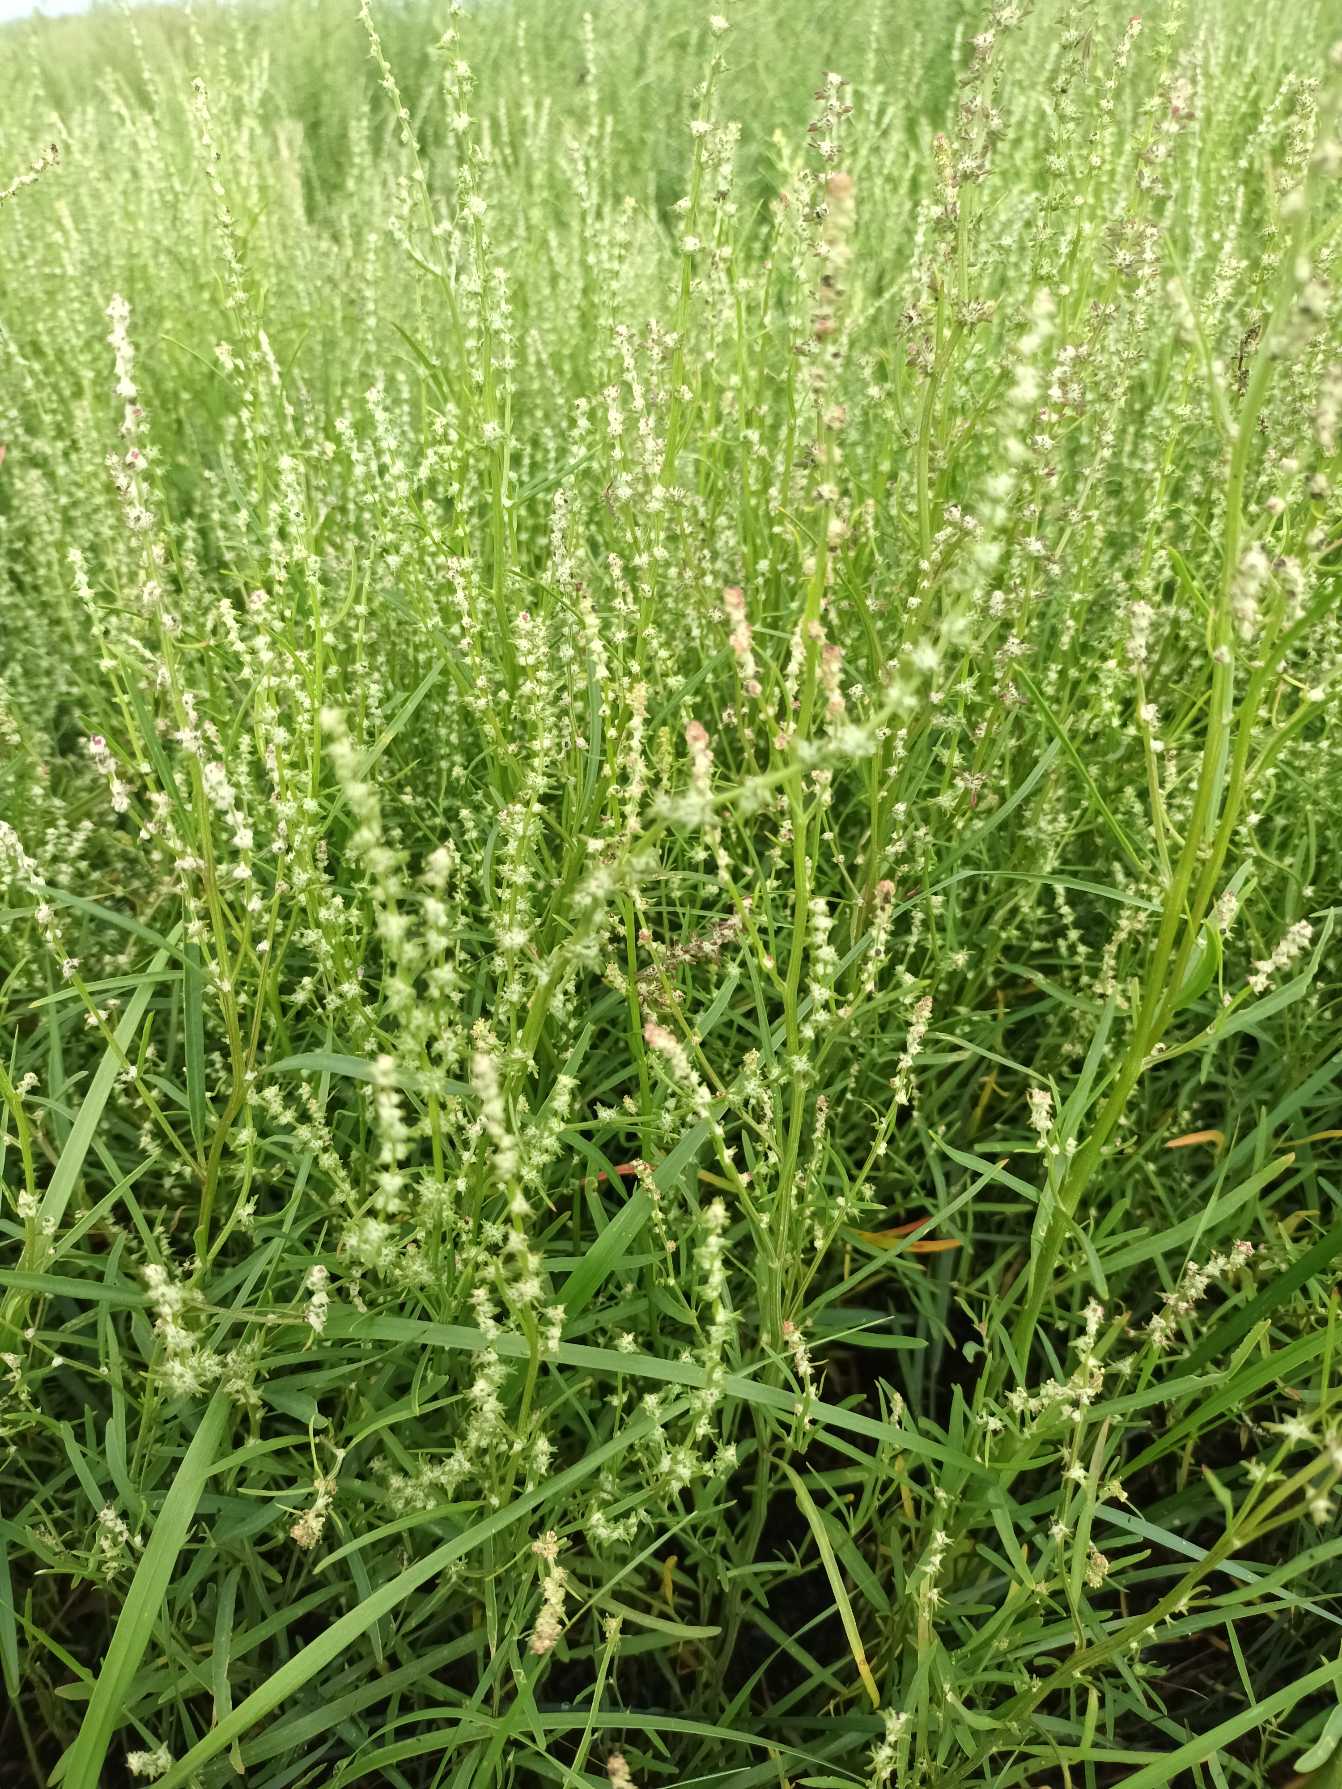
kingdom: Plantae
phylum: Tracheophyta
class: Magnoliopsida
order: Caryophyllales
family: Amaranthaceae
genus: Atriplex
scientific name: Atriplex littoralis
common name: Strand-mælde
